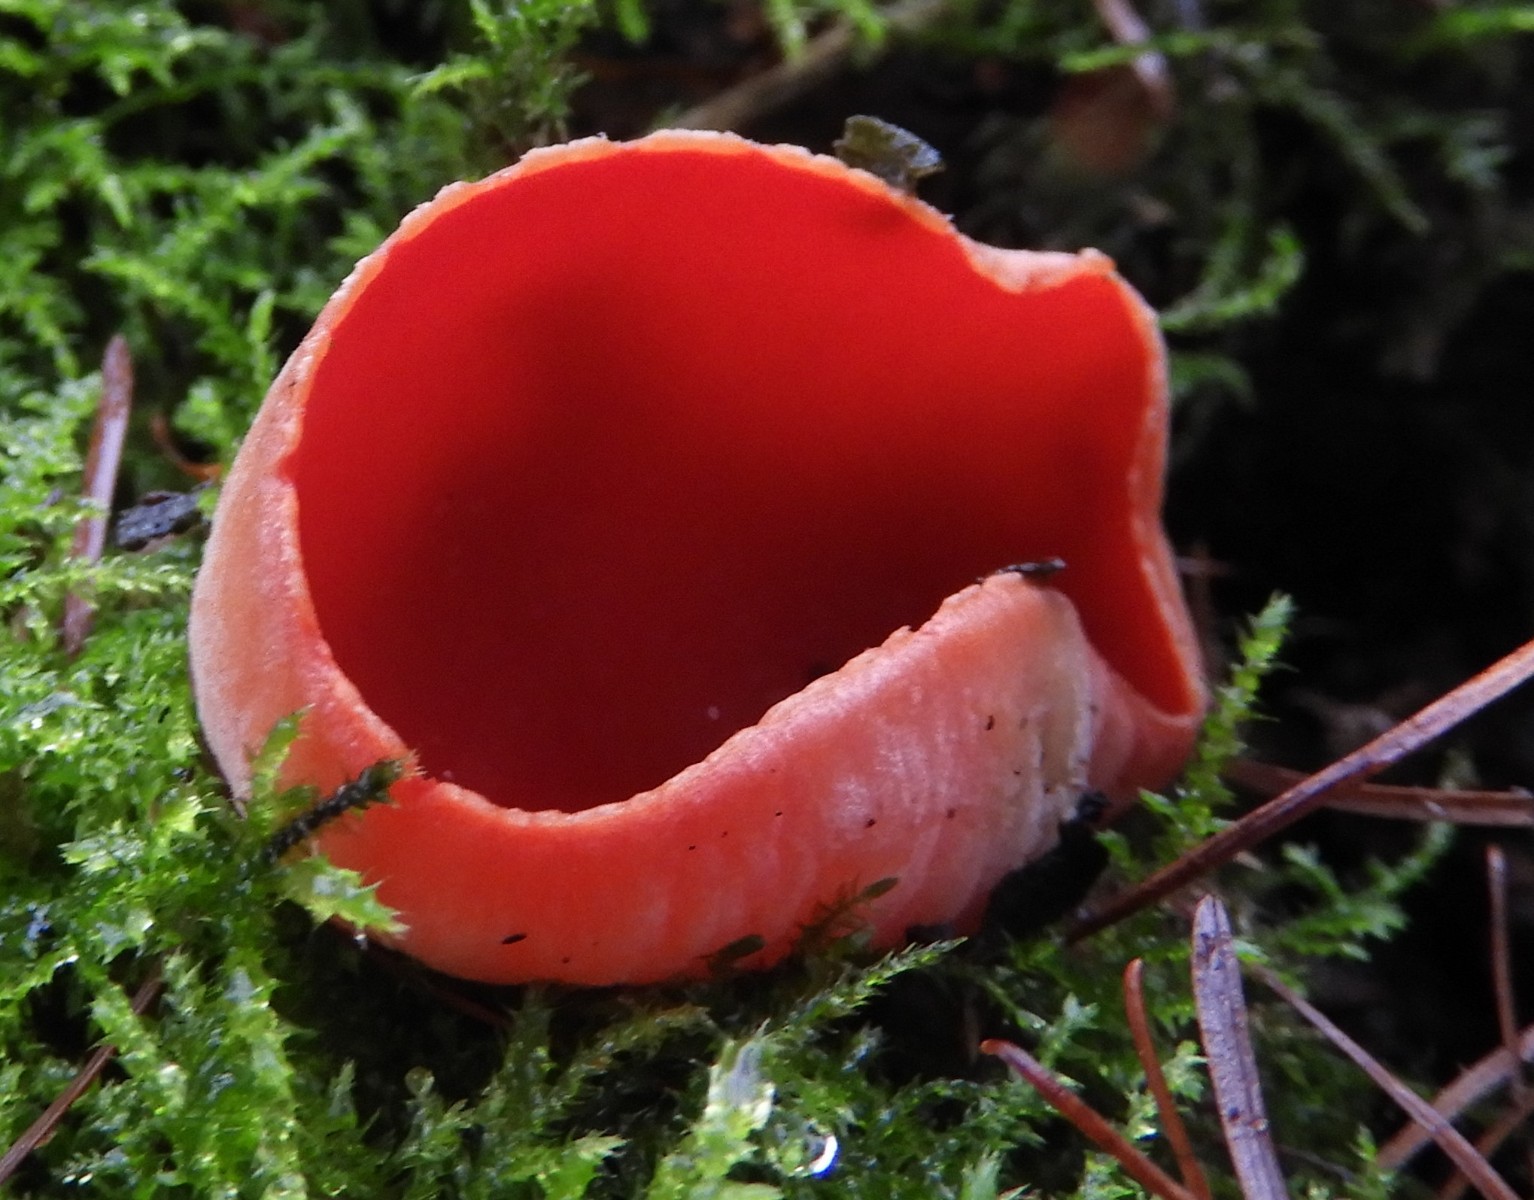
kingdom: Fungi
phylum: Ascomycota
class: Pezizomycetes
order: Pezizales
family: Sarcoscyphaceae
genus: Sarcoscypha
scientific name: Sarcoscypha austriaca
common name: krølhåret pragtbæger
